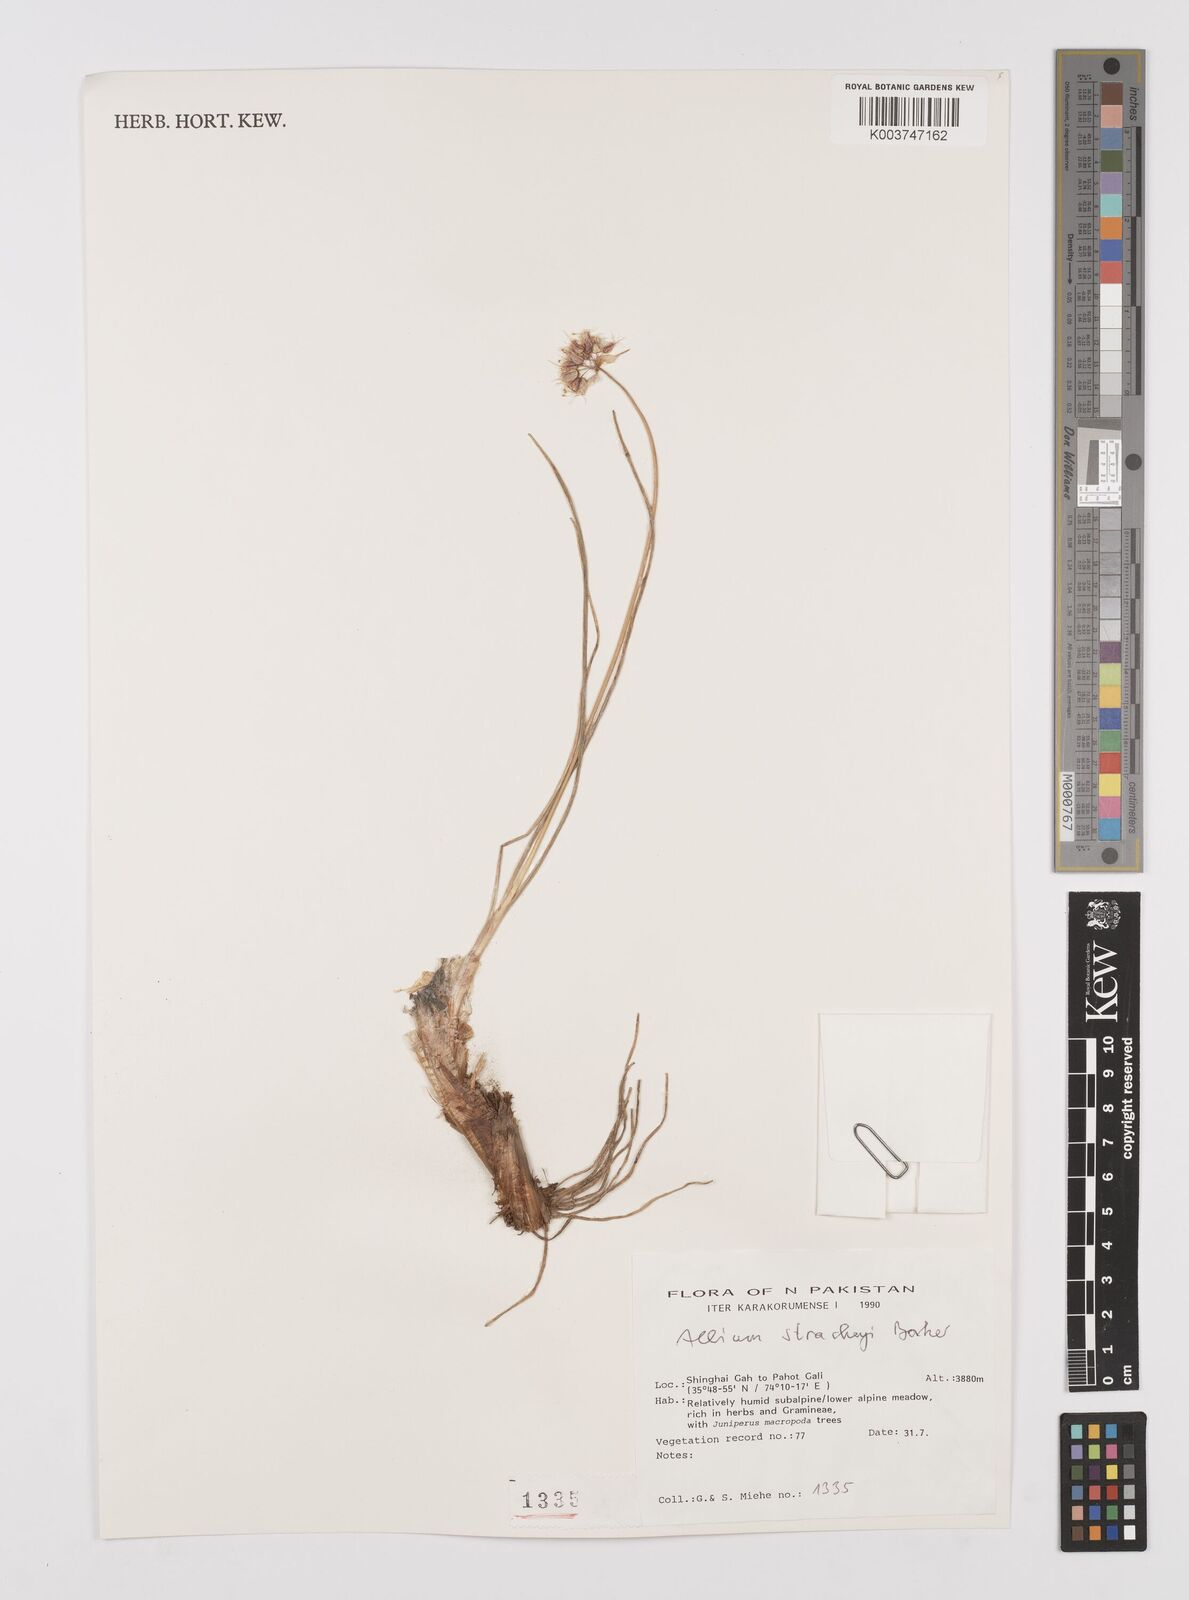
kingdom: Plantae
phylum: Tracheophyta
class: Liliopsida
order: Asparagales
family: Amaryllidaceae
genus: Allium
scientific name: Allium stracheyi
